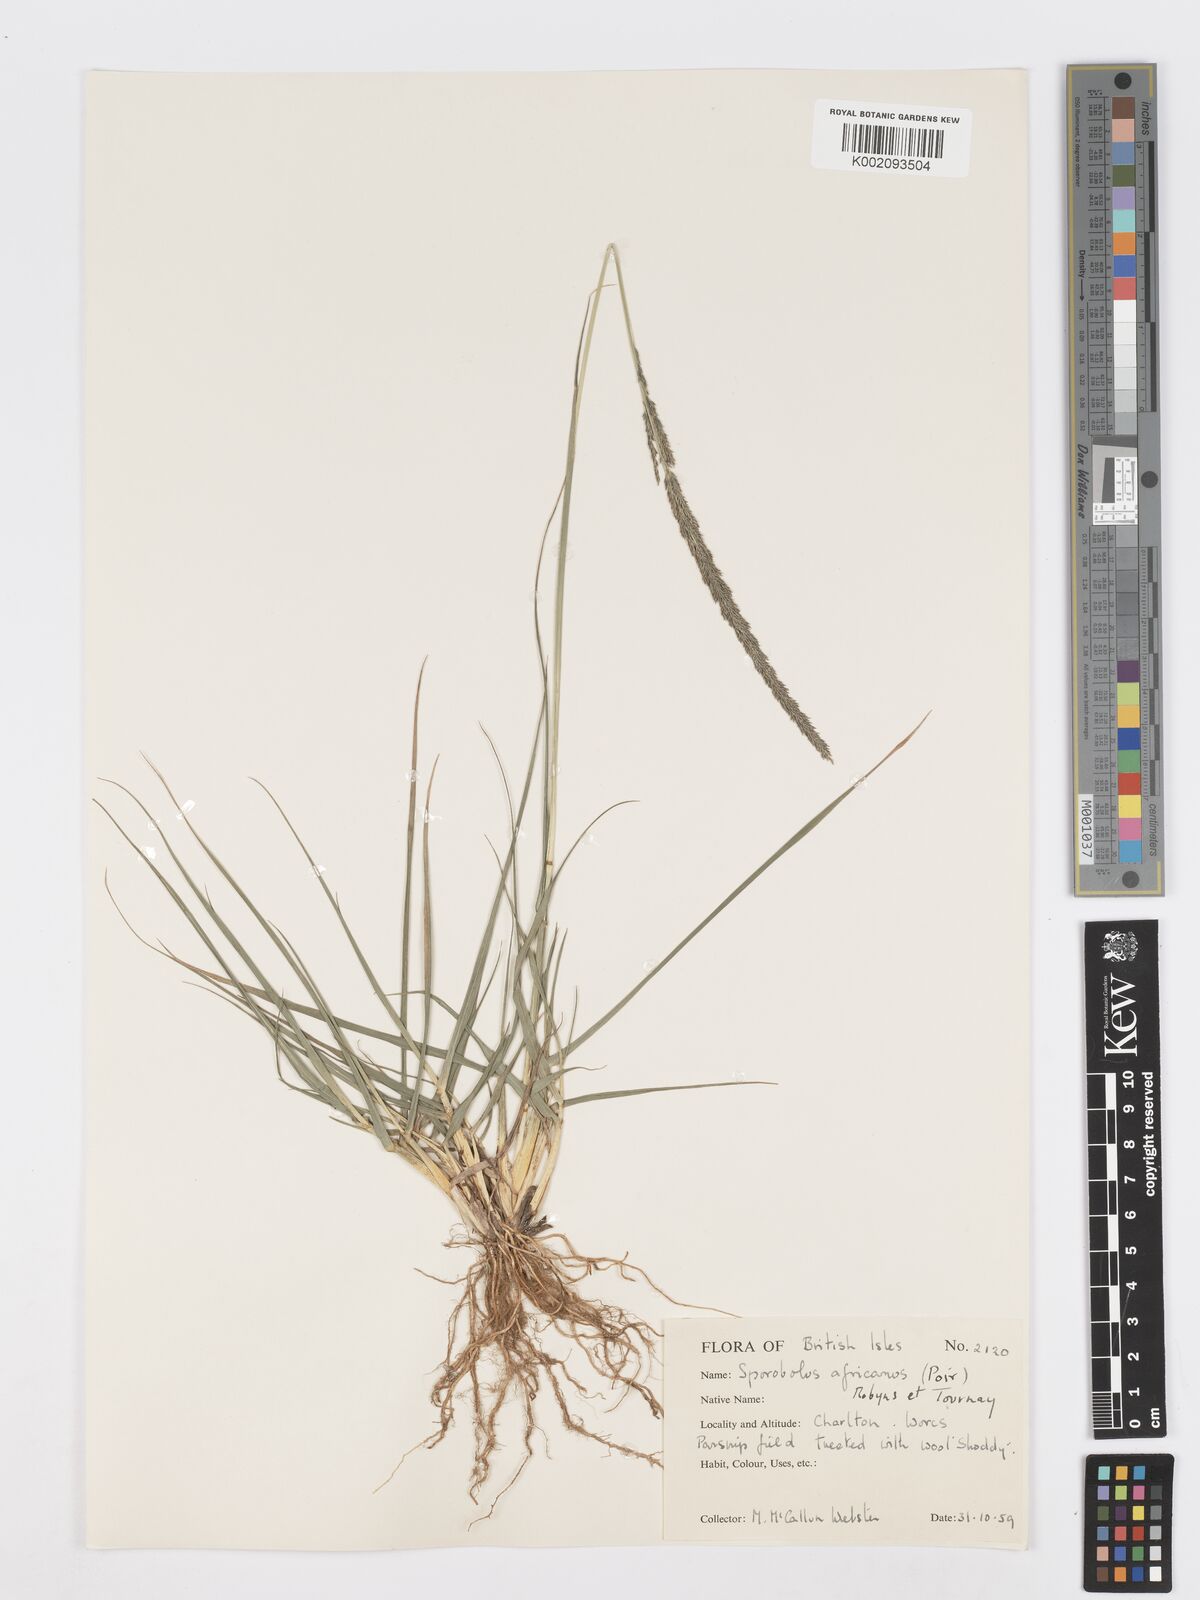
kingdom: Plantae
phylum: Tracheophyta
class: Liliopsida
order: Poales
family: Poaceae
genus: Sporobolus
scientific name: Sporobolus africanus
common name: African dropseed
